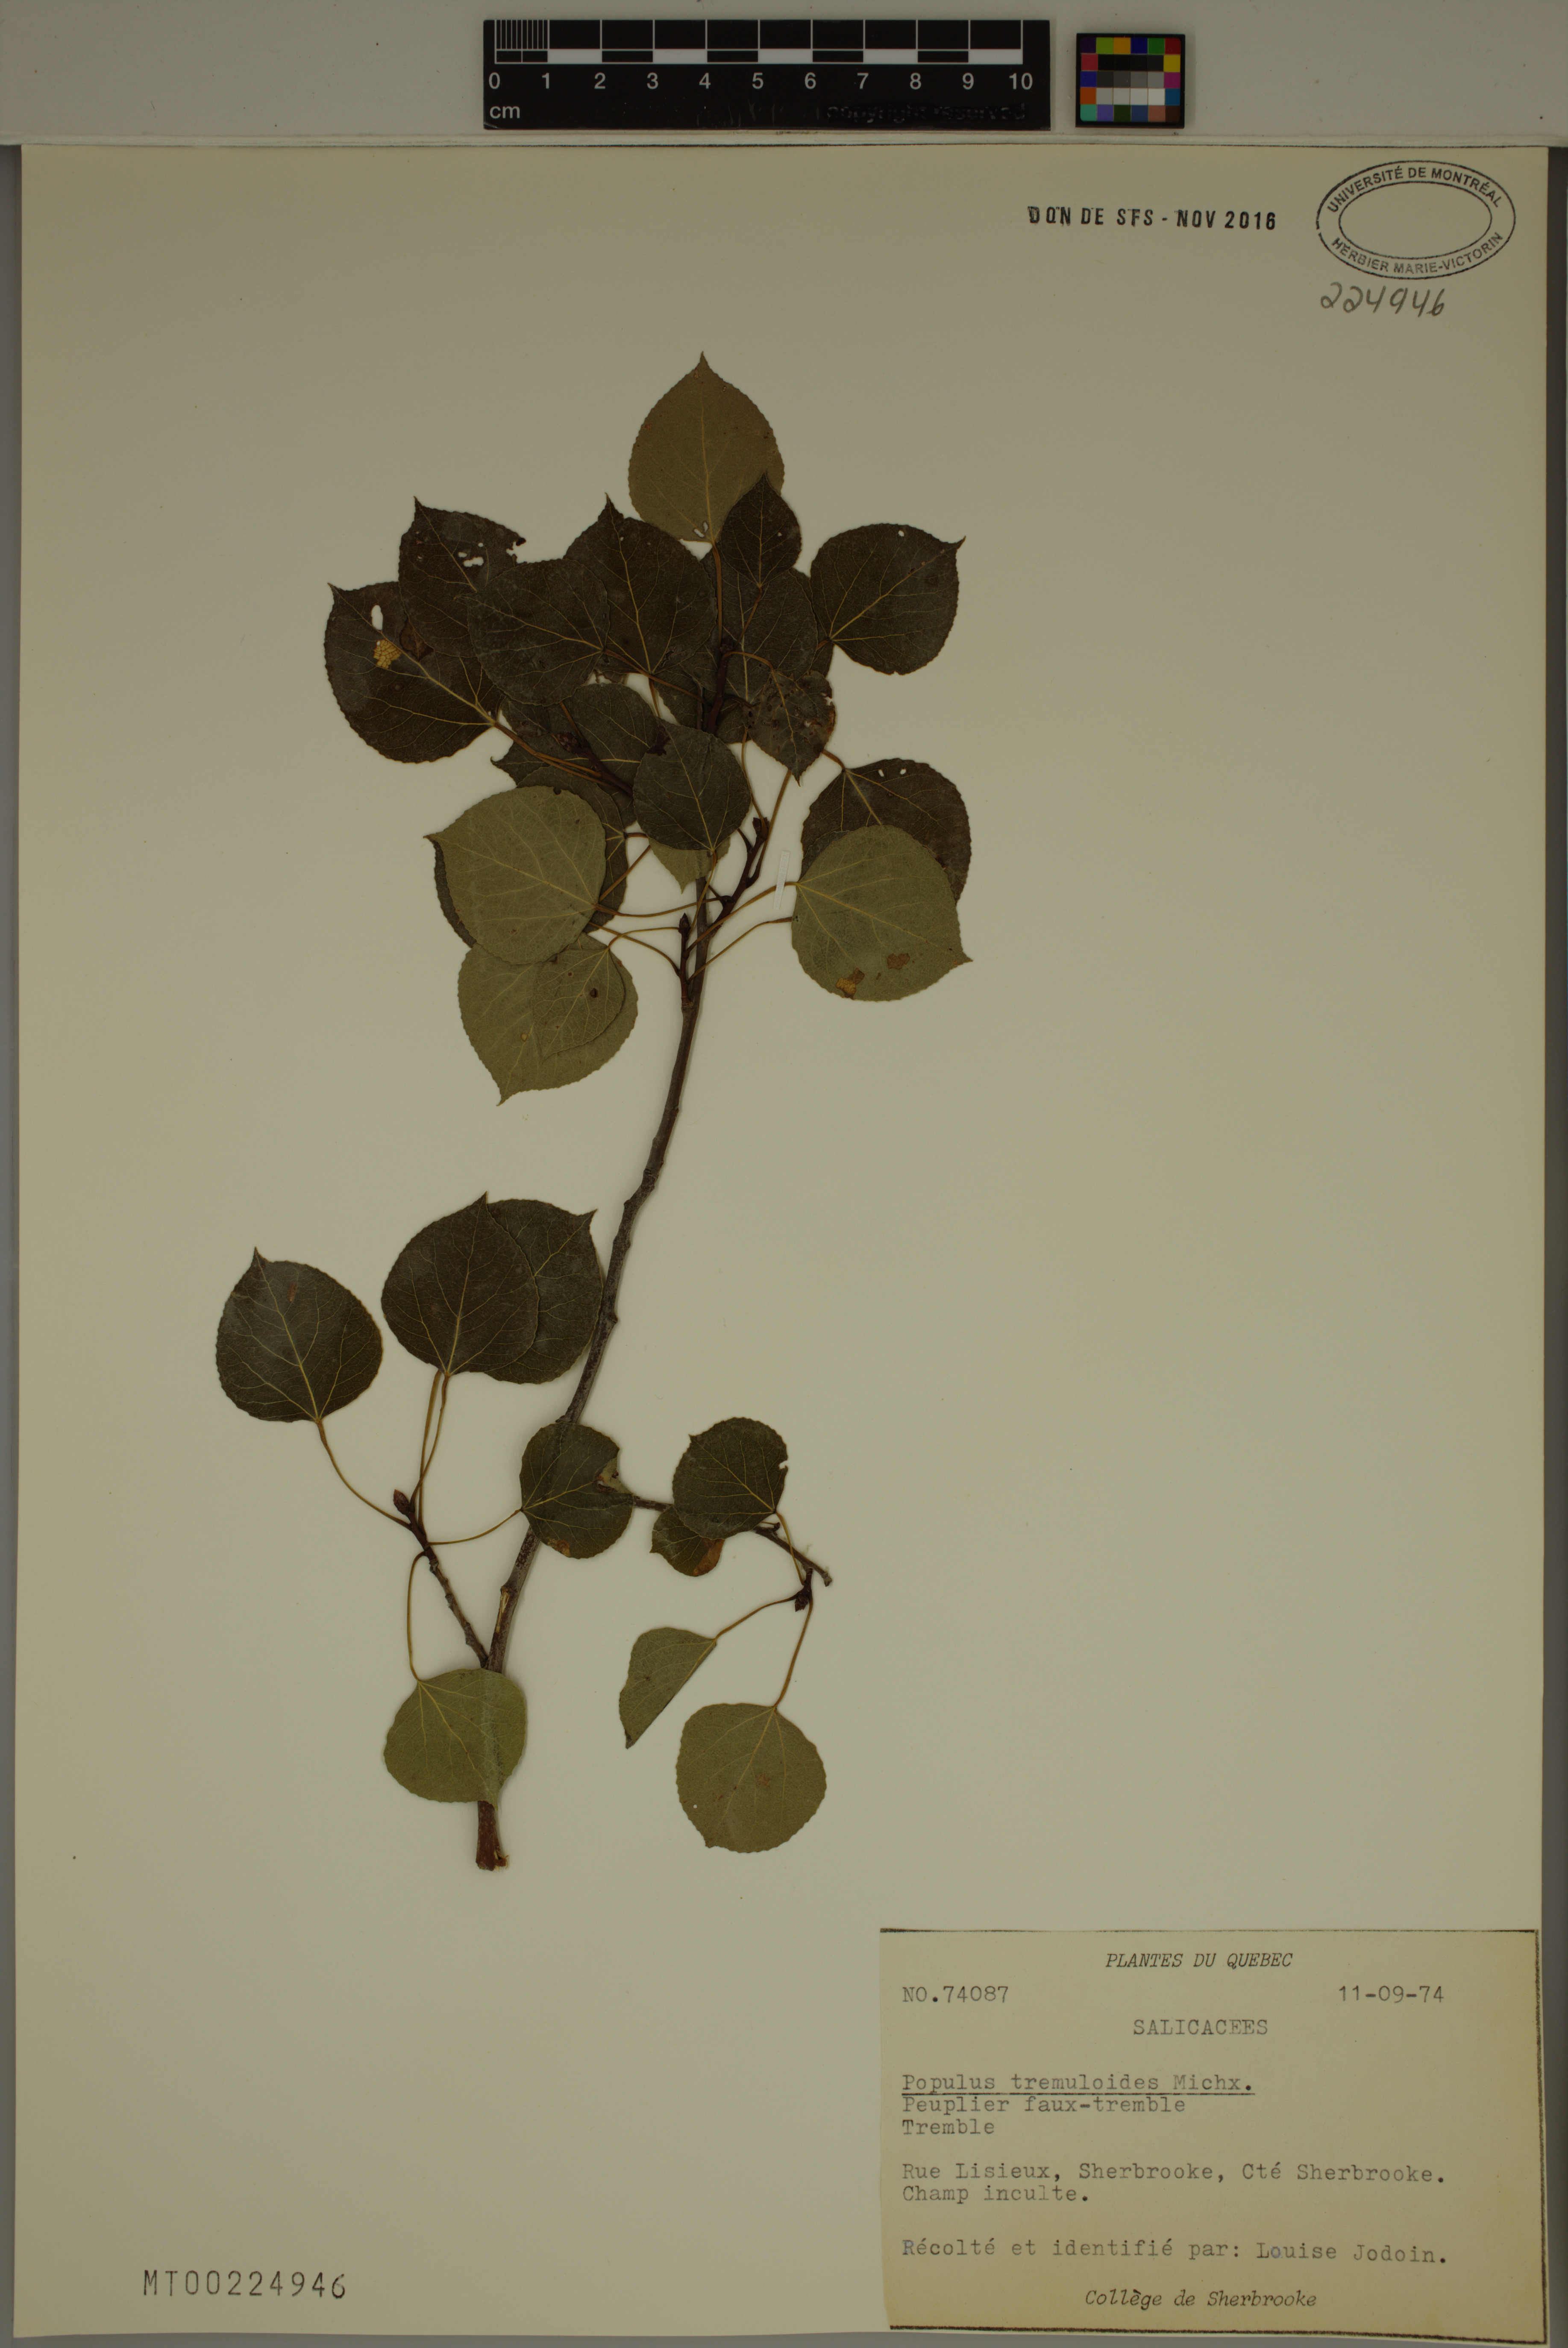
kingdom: Plantae
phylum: Tracheophyta
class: Magnoliopsida
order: Malpighiales
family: Salicaceae
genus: Populus
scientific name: Populus tremuloides
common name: Quaking aspen
